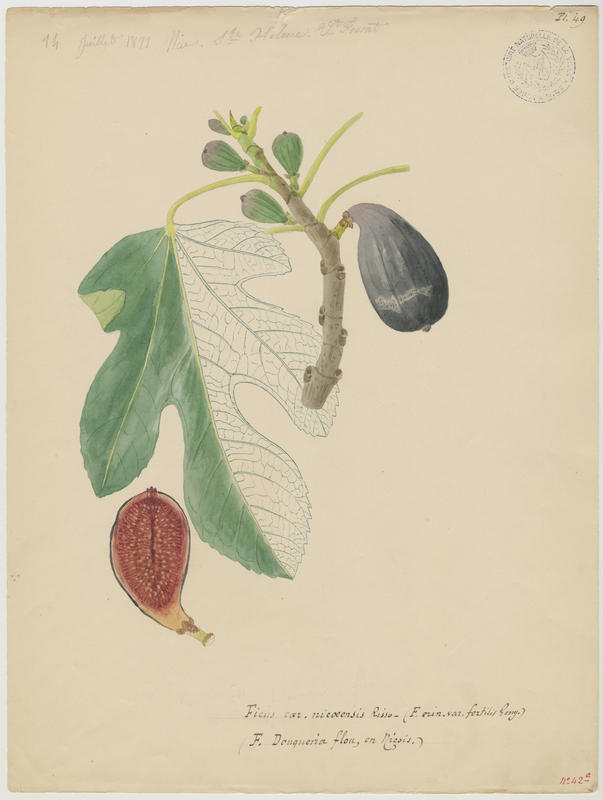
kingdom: Plantae
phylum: Tracheophyta
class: Magnoliopsida
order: Rosales
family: Moraceae
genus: Ficus
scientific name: Ficus carica
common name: Fig
